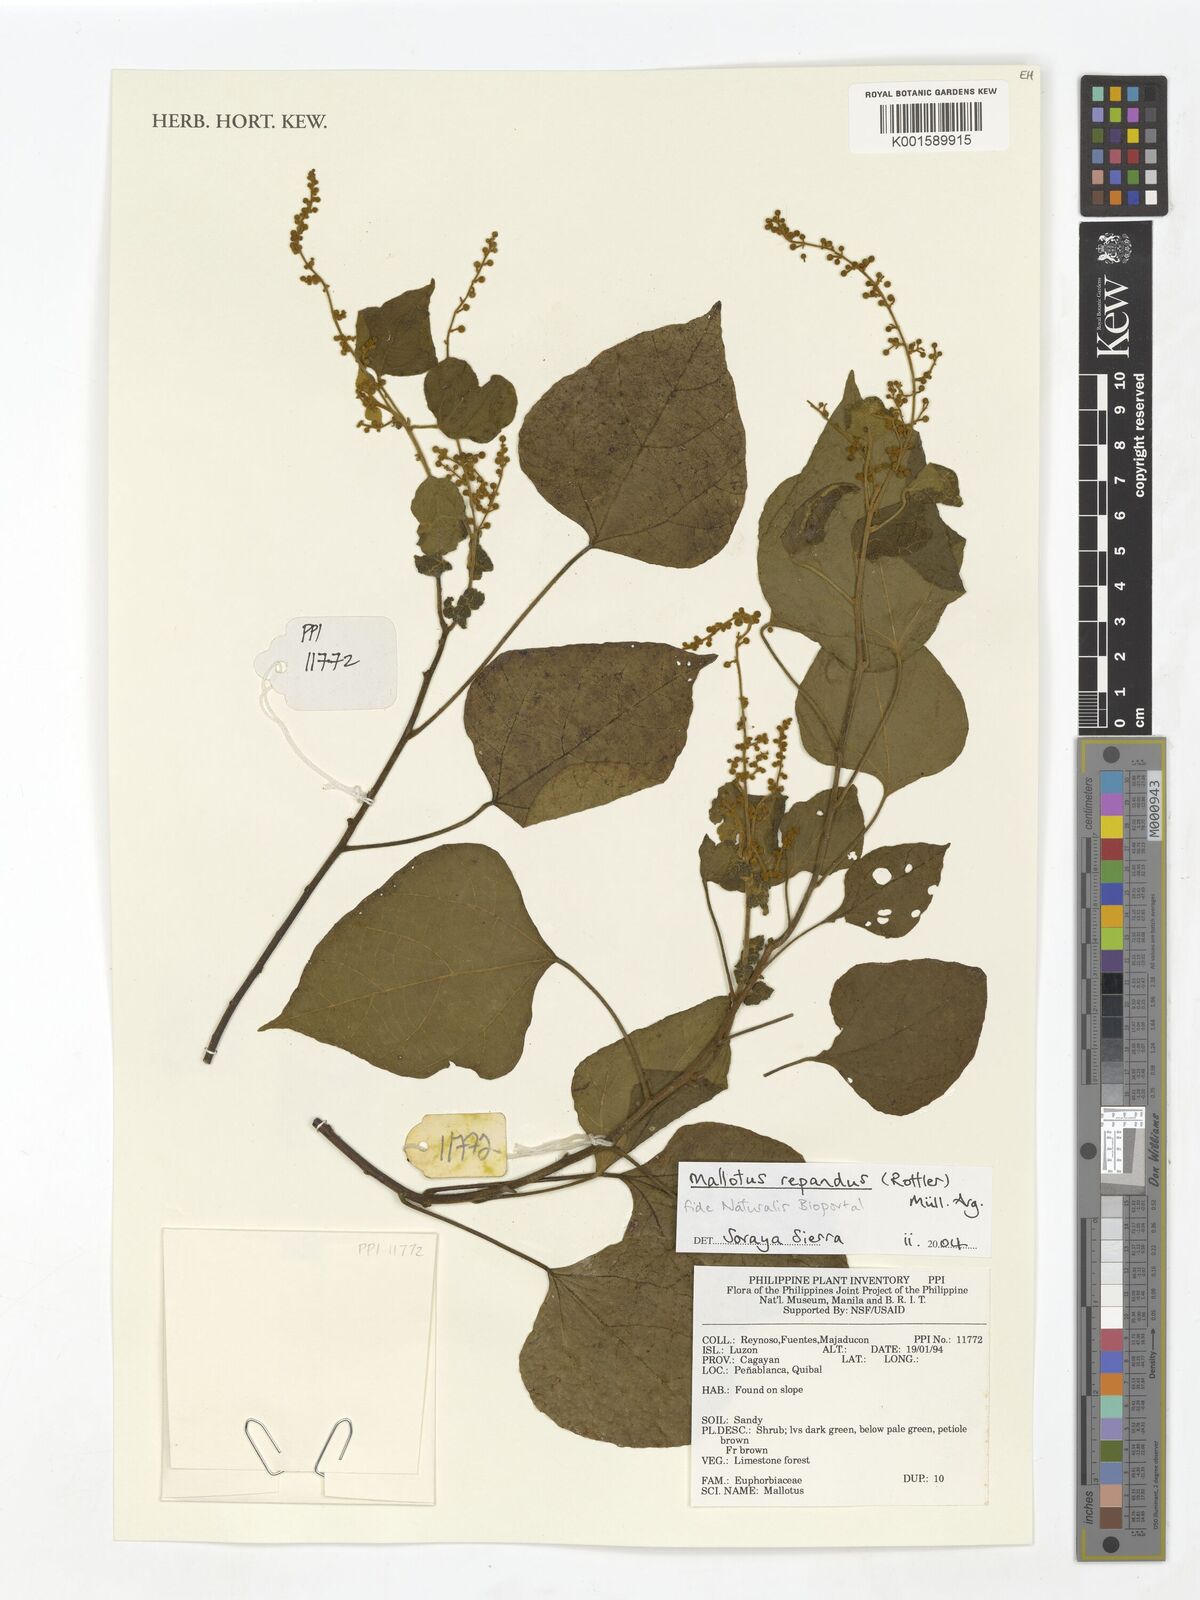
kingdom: Plantae
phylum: Tracheophyta
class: Magnoliopsida
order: Malpighiales
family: Euphorbiaceae
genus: Mallotus
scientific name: Mallotus repandus
